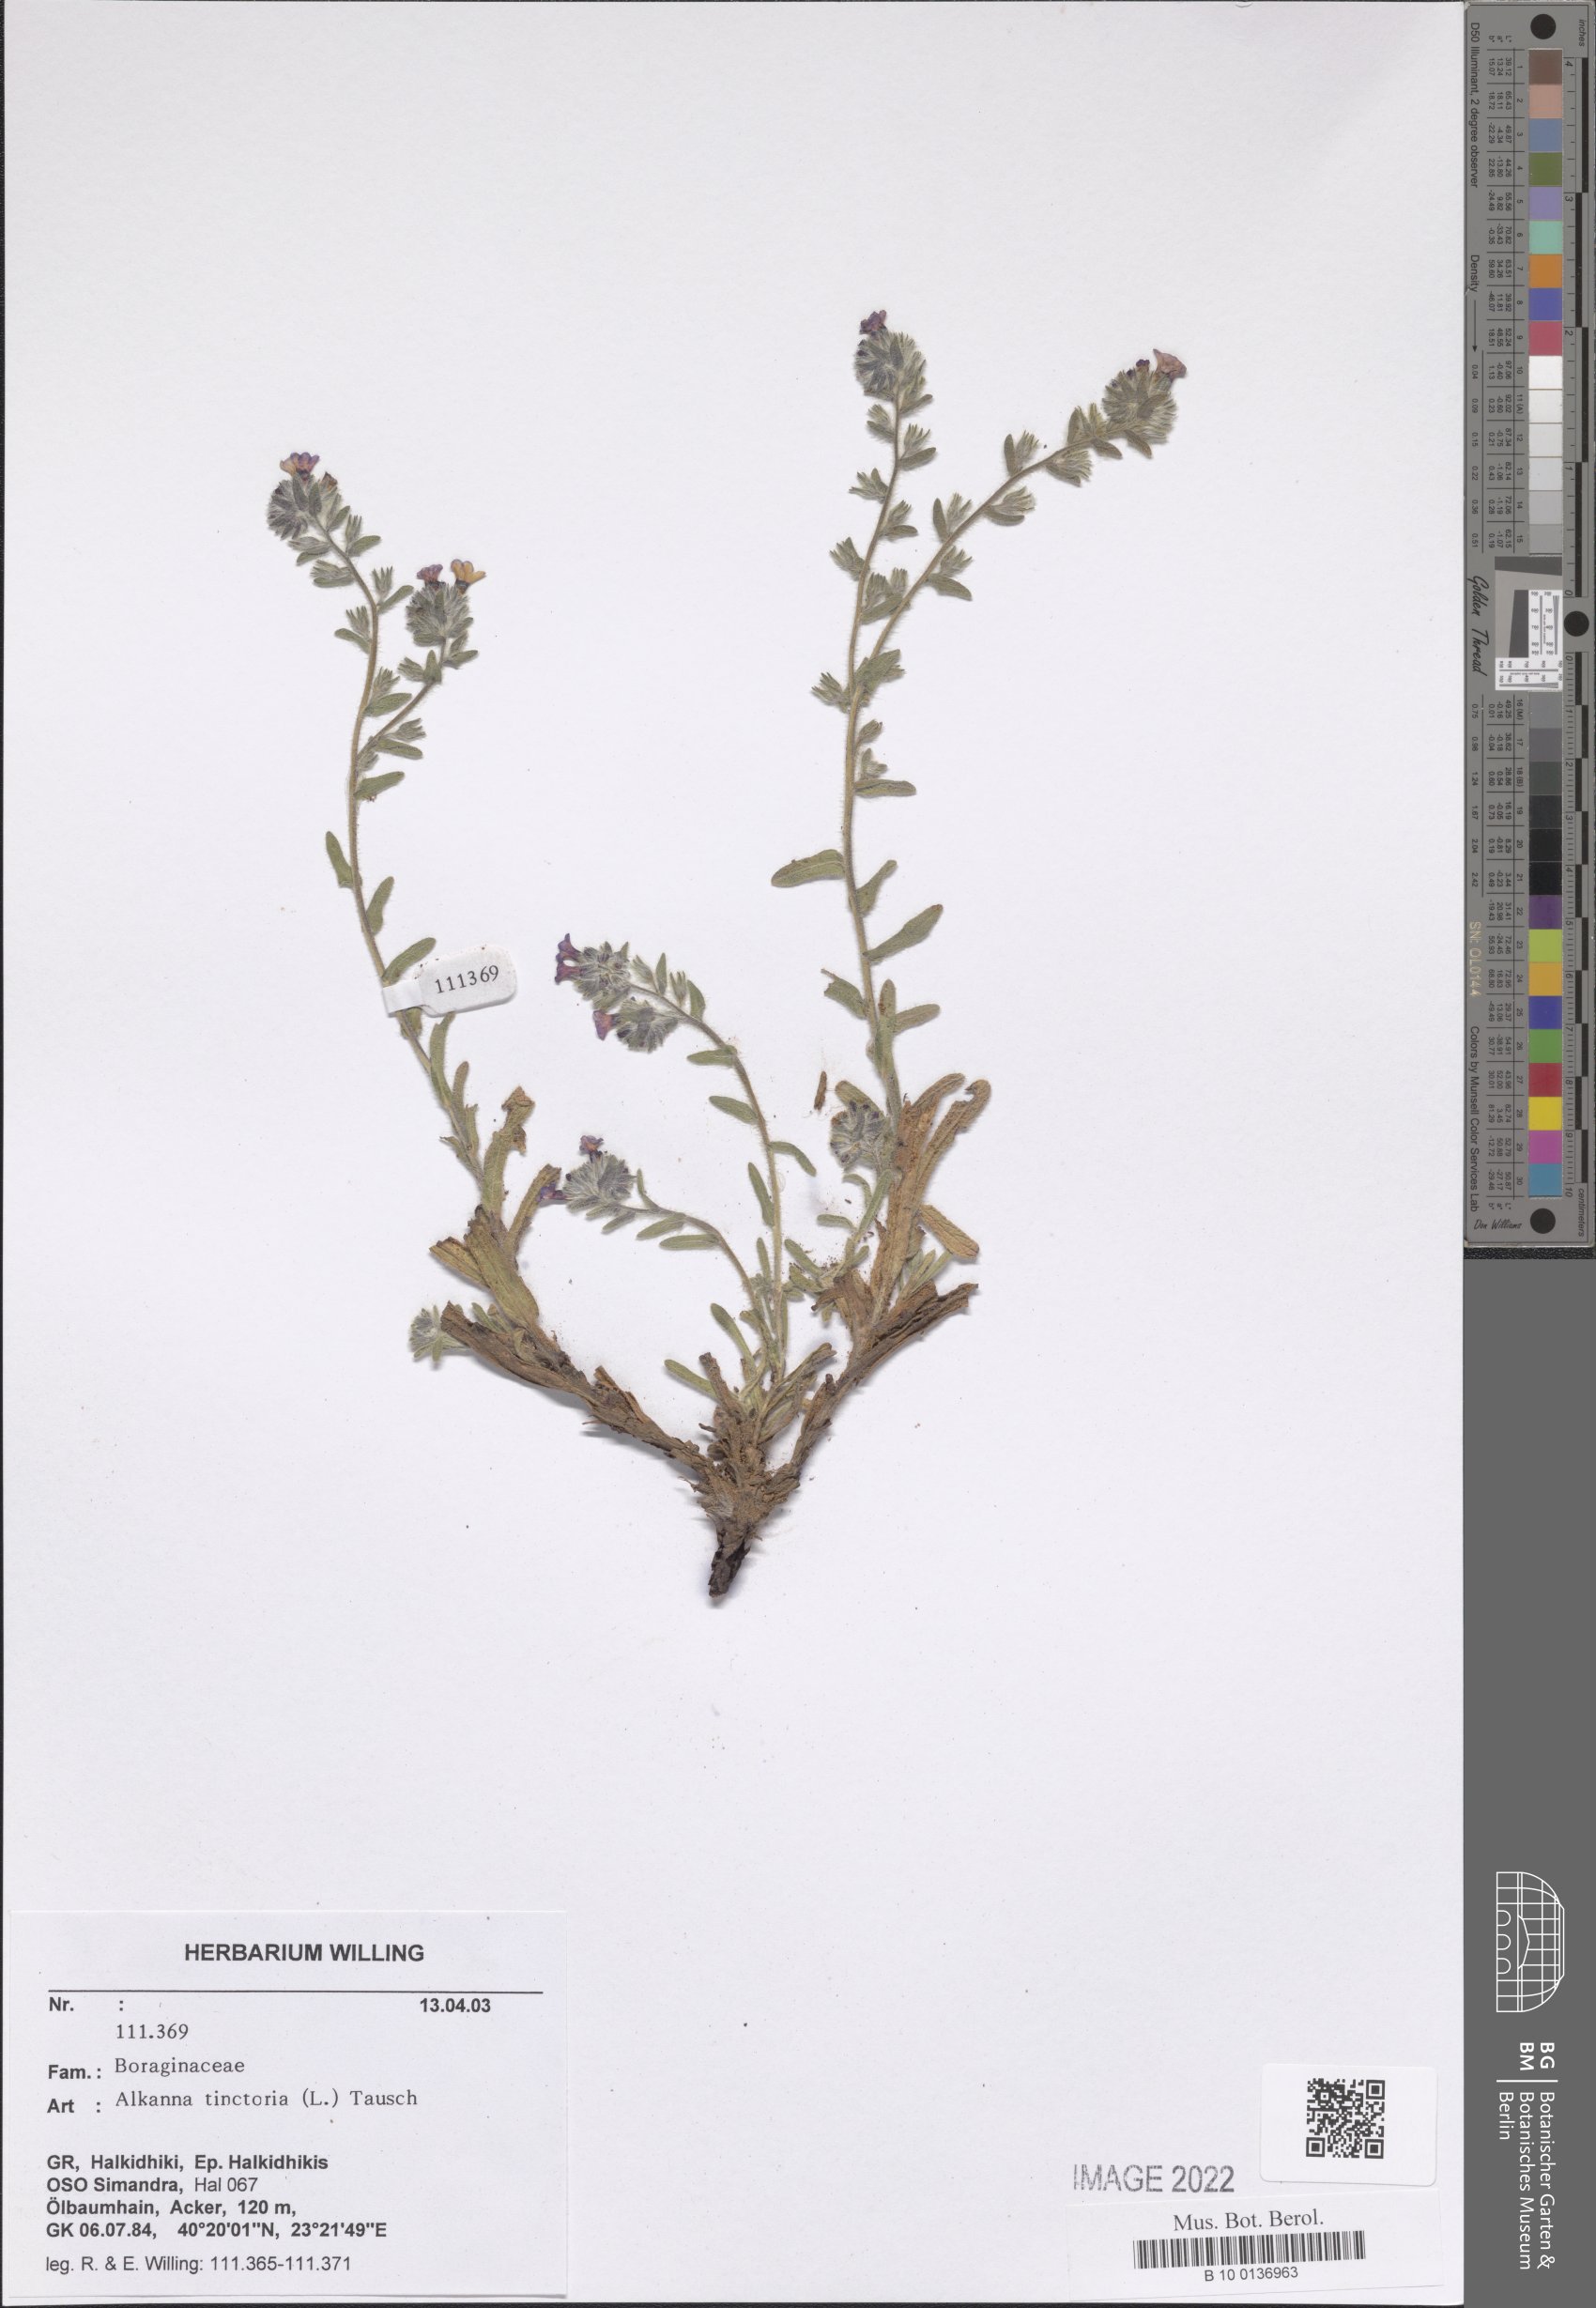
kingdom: Plantae
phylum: Tracheophyta
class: Magnoliopsida
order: Boraginales
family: Boraginaceae
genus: Alkanna
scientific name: Alkanna tinctoria
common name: Dyer's-alkanet
